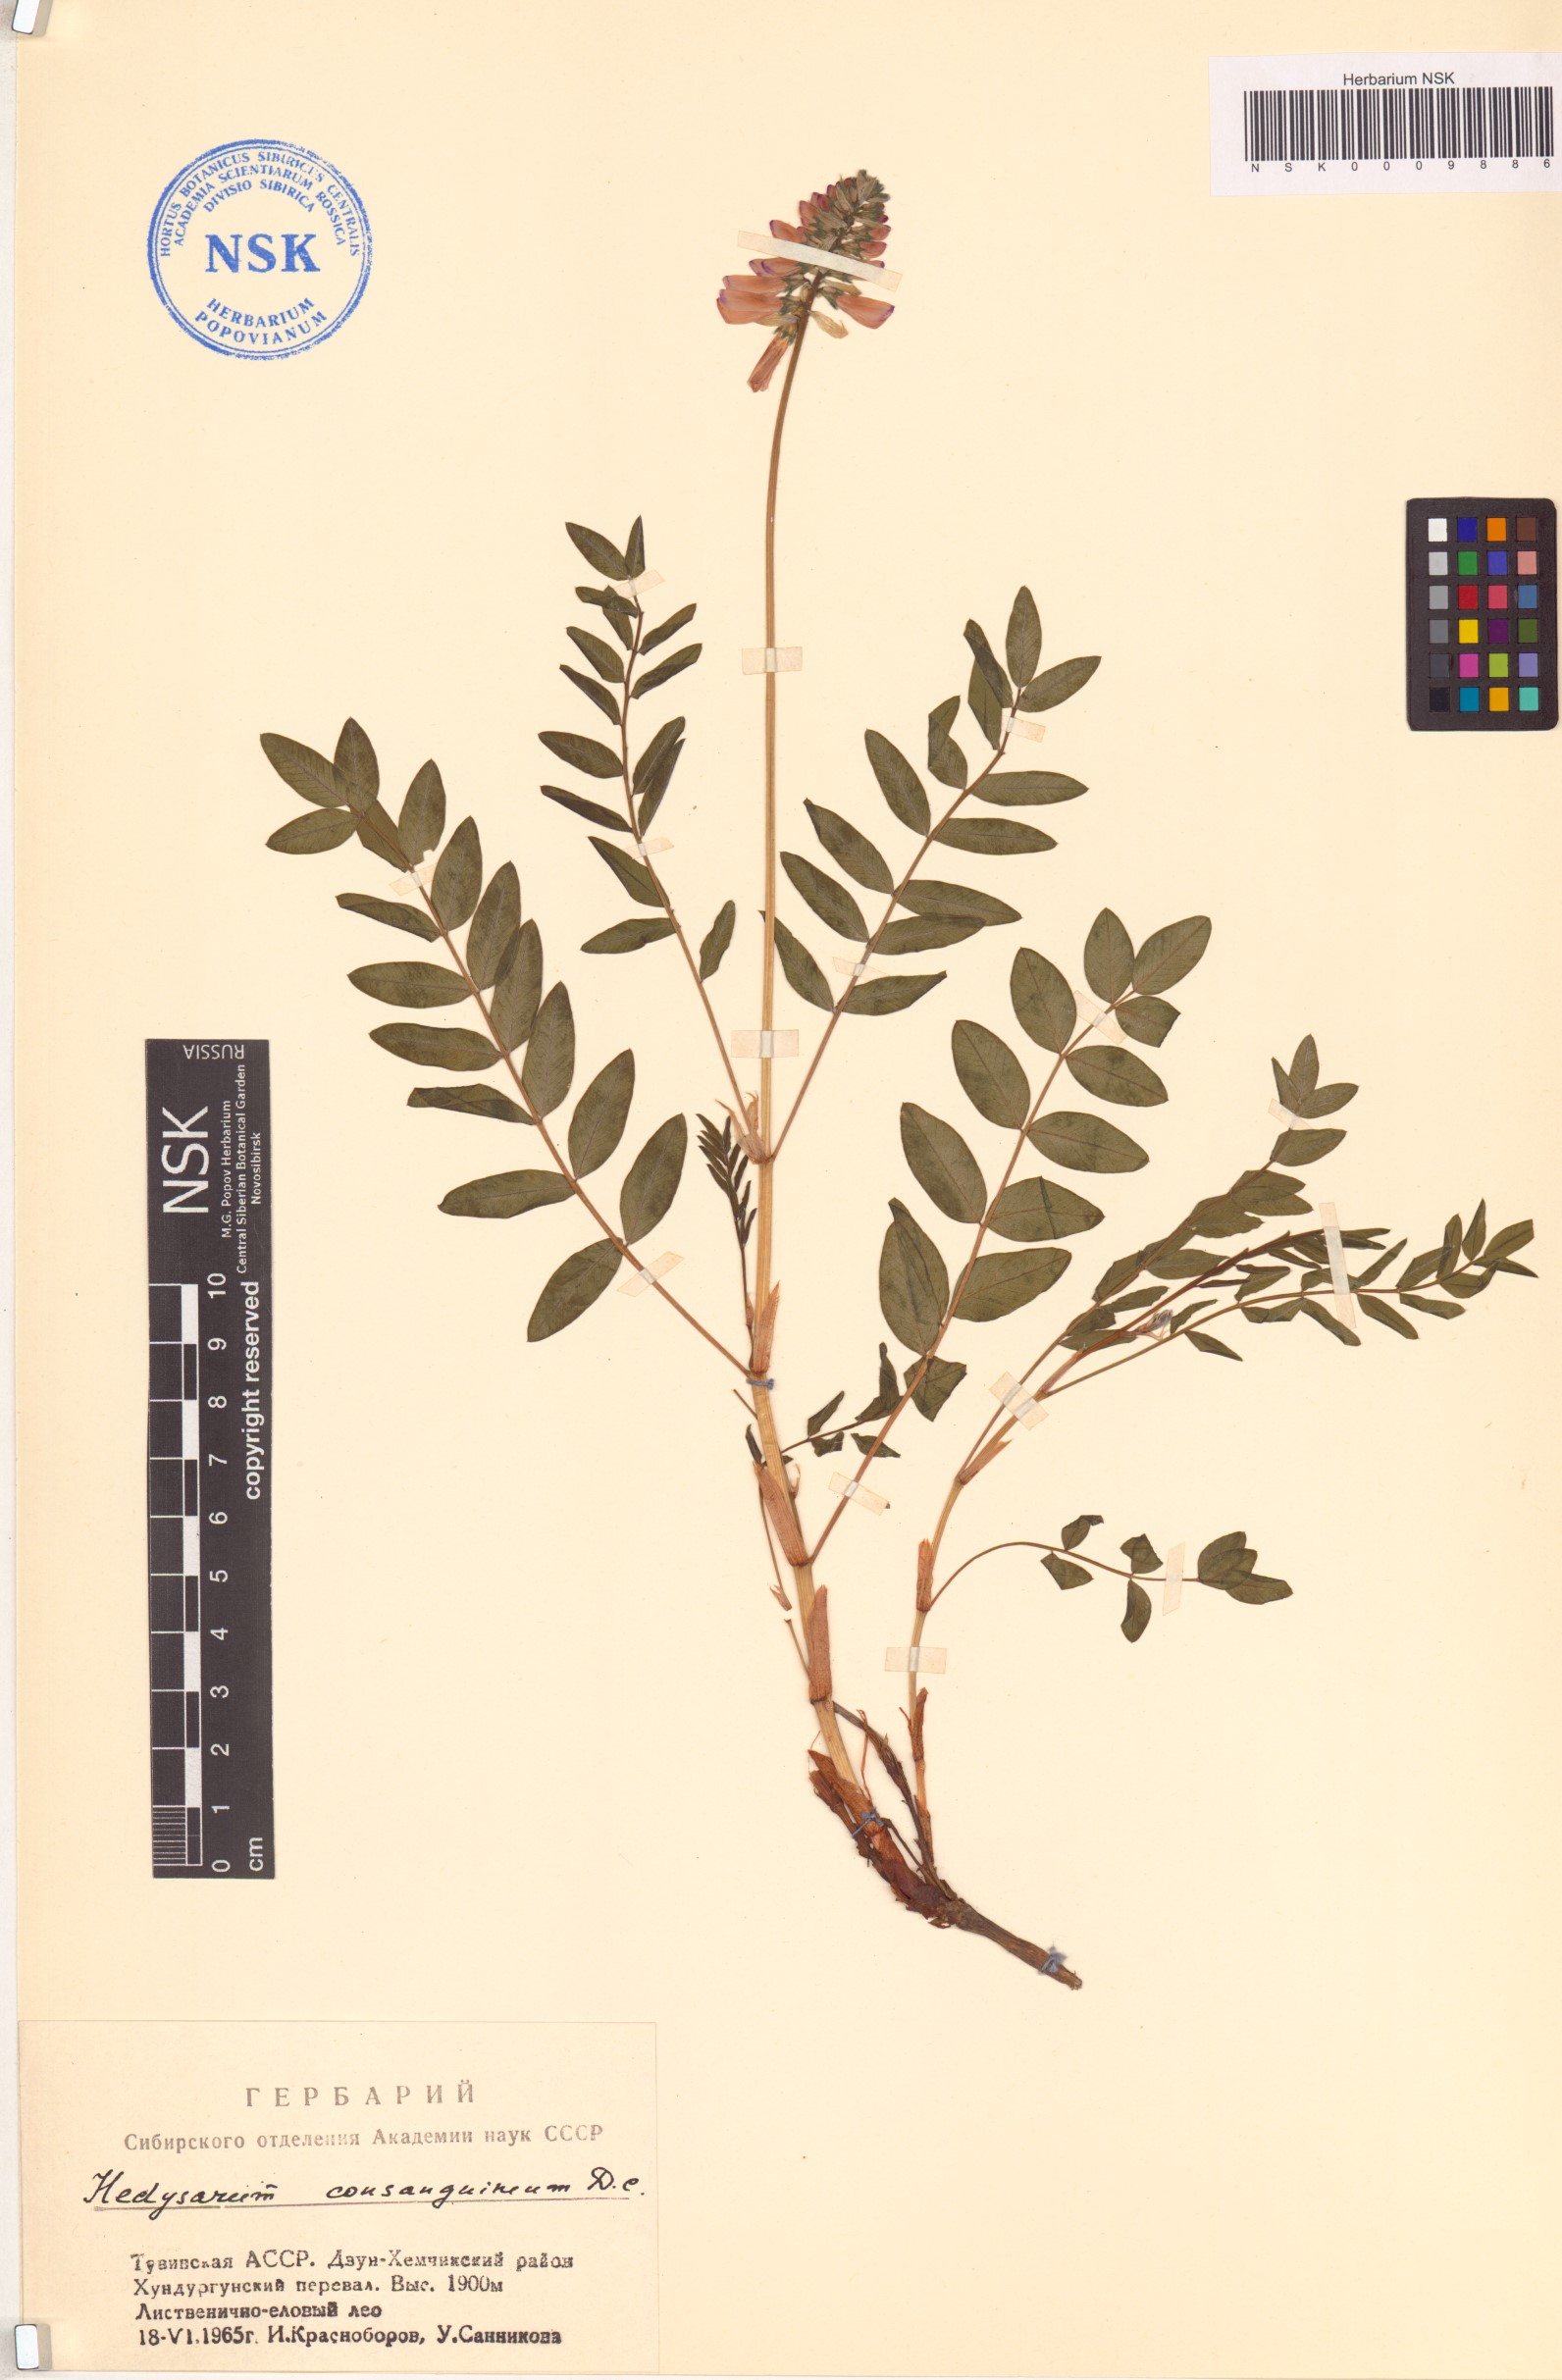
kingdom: Plantae
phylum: Tracheophyta
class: Magnoliopsida
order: Fabales
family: Fabaceae
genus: Hedysarum
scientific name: Hedysarum consanguineum
